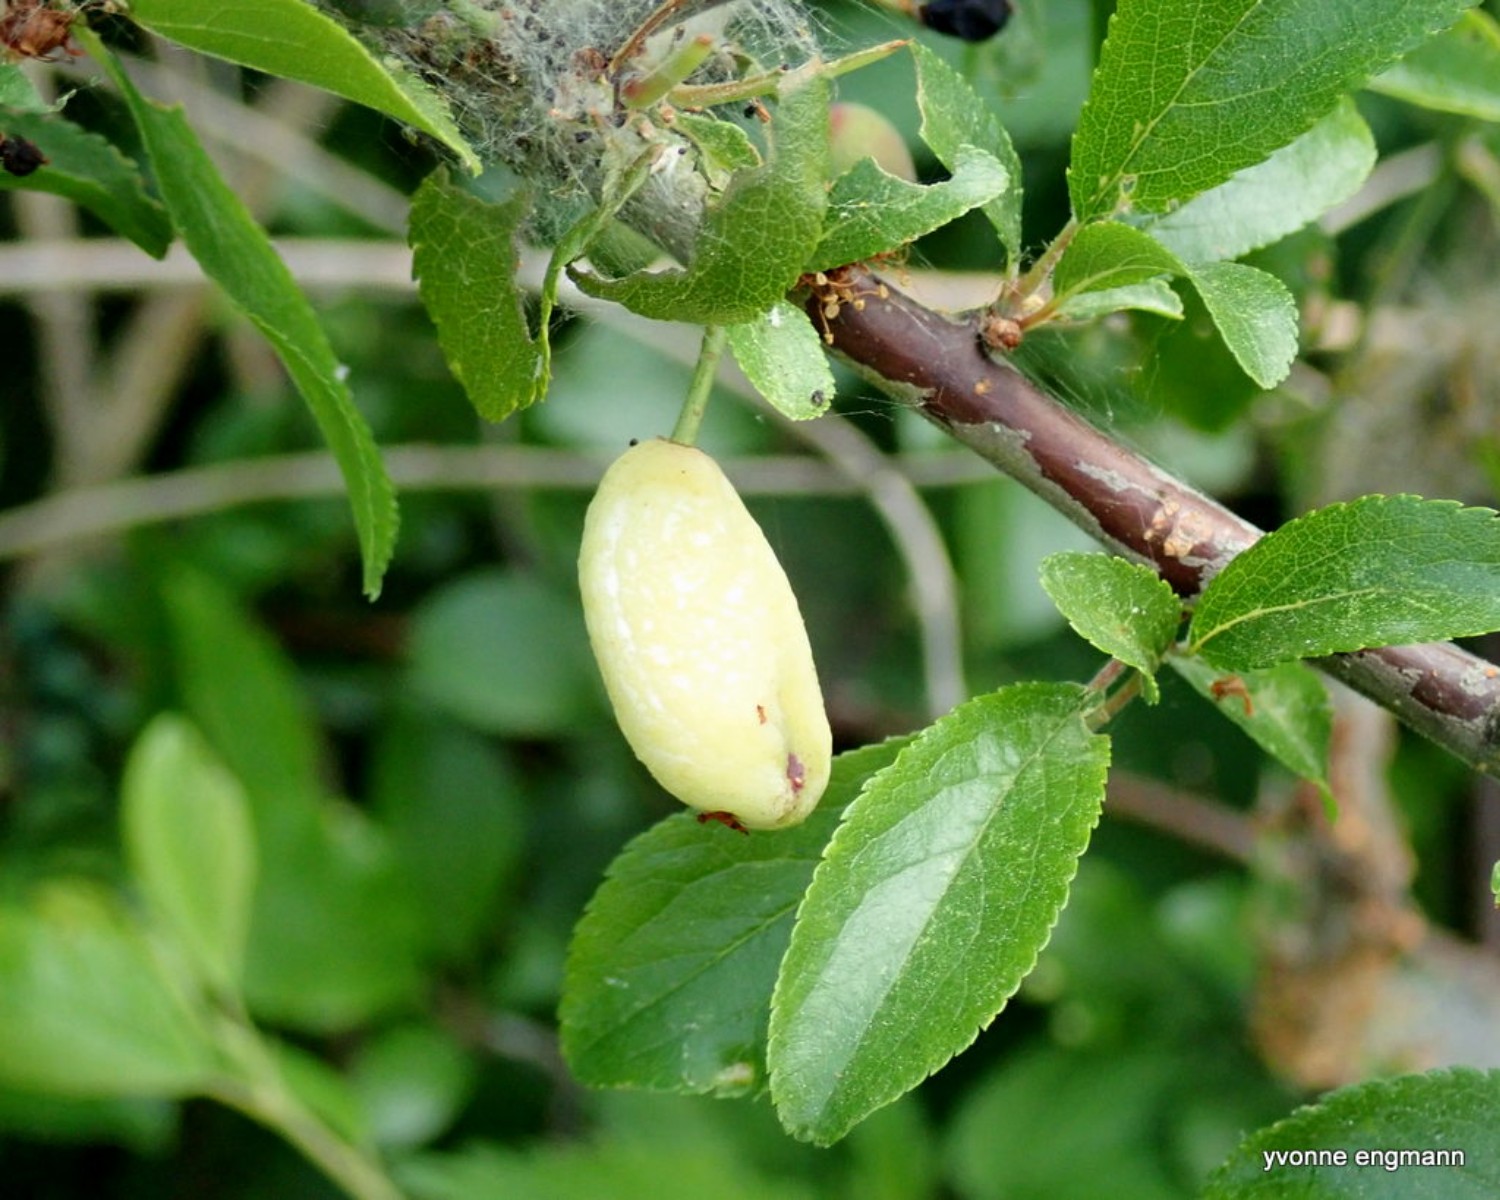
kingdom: Fungi
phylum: Ascomycota
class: Taphrinomycetes
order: Taphrinales
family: Taphrinaceae
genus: Taphrina
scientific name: Taphrina pruni
